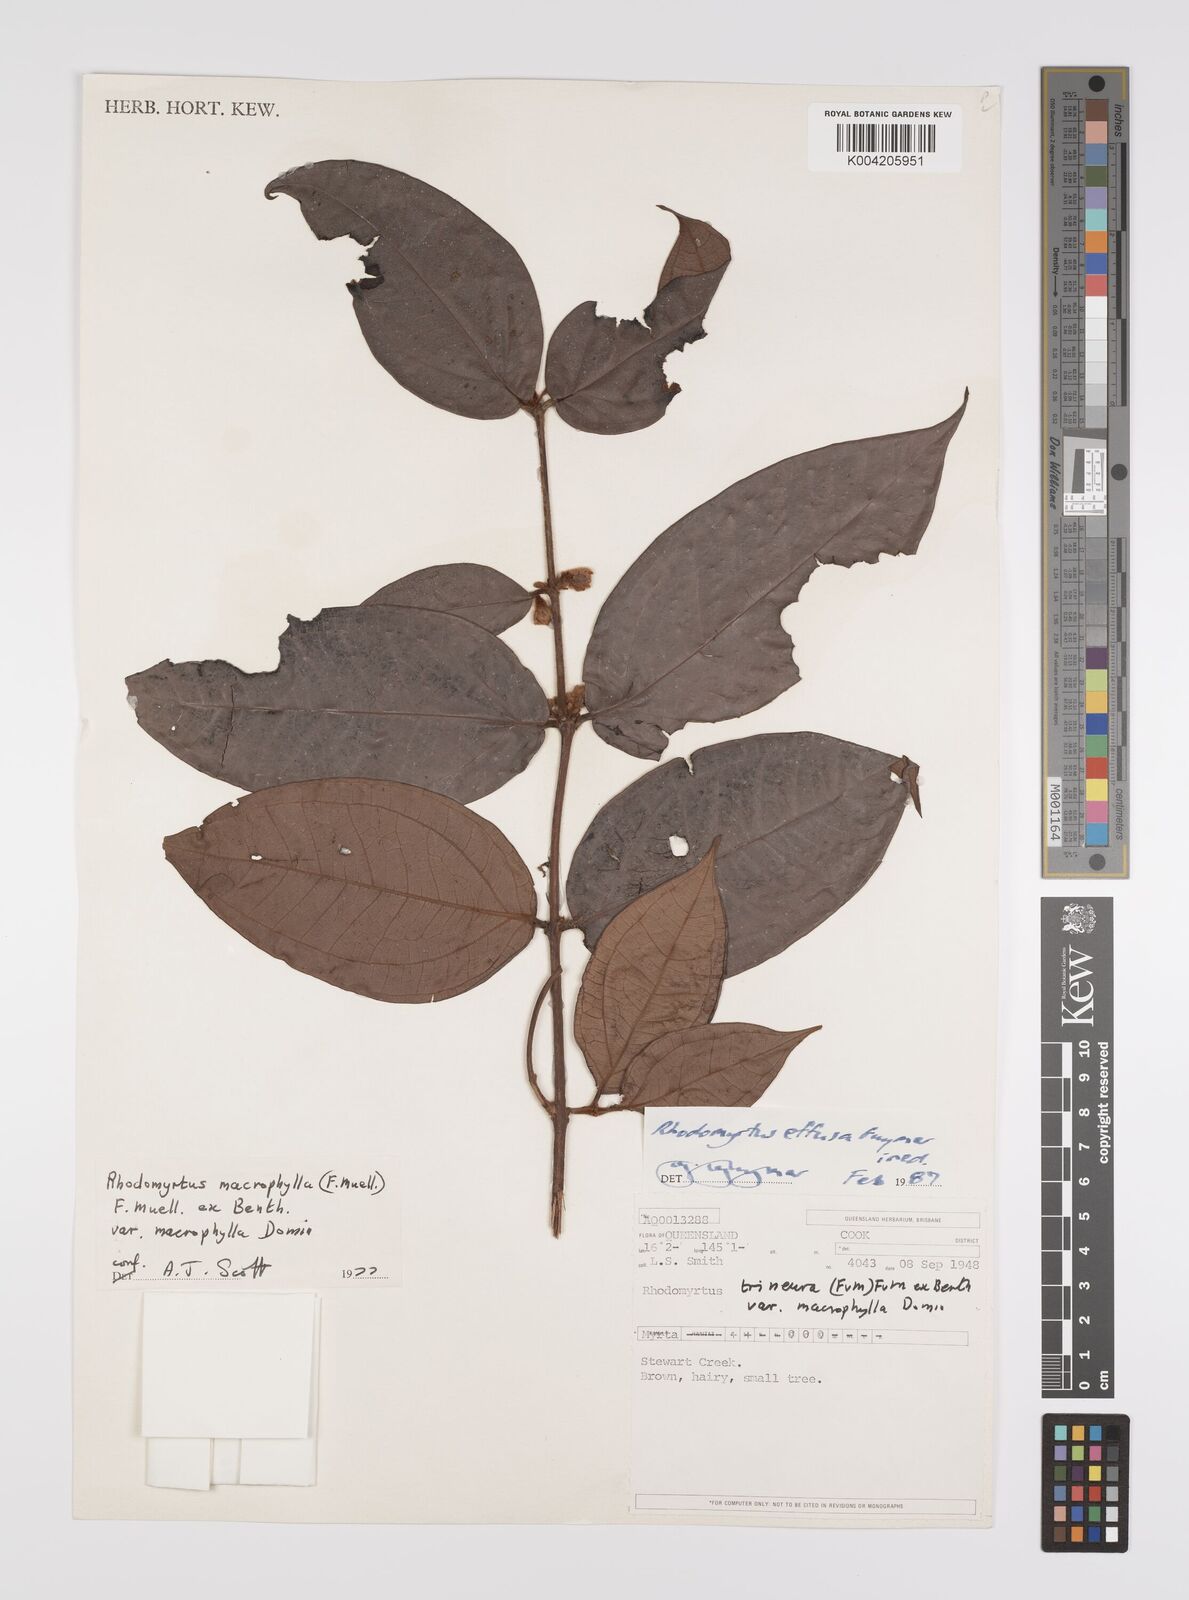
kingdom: Plantae
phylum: Tracheophyta
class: Magnoliopsida
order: Myrtales
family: Myrtaceae
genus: Rhodomyrtus
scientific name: Rhodomyrtus effusa
